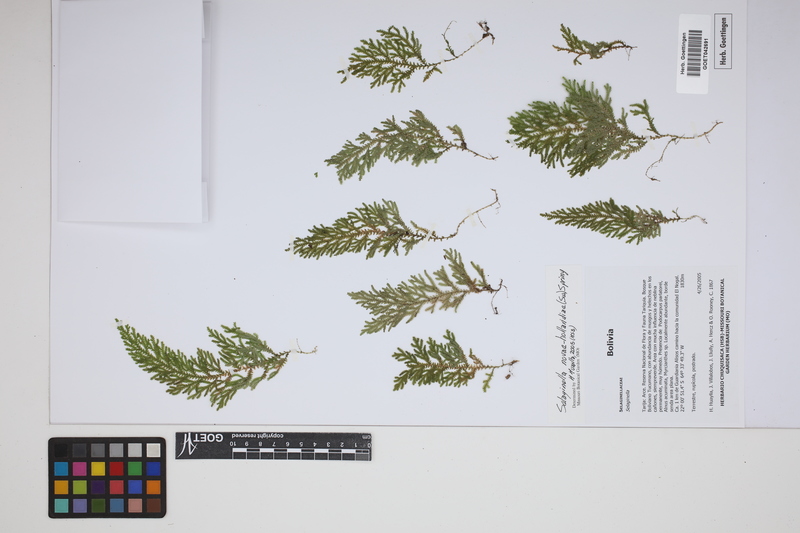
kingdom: Plantae
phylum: Tracheophyta
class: Lycopodiopsida
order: Selaginellales
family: Selaginellaceae
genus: Selaginella
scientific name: Selaginella novae-hollandiae
